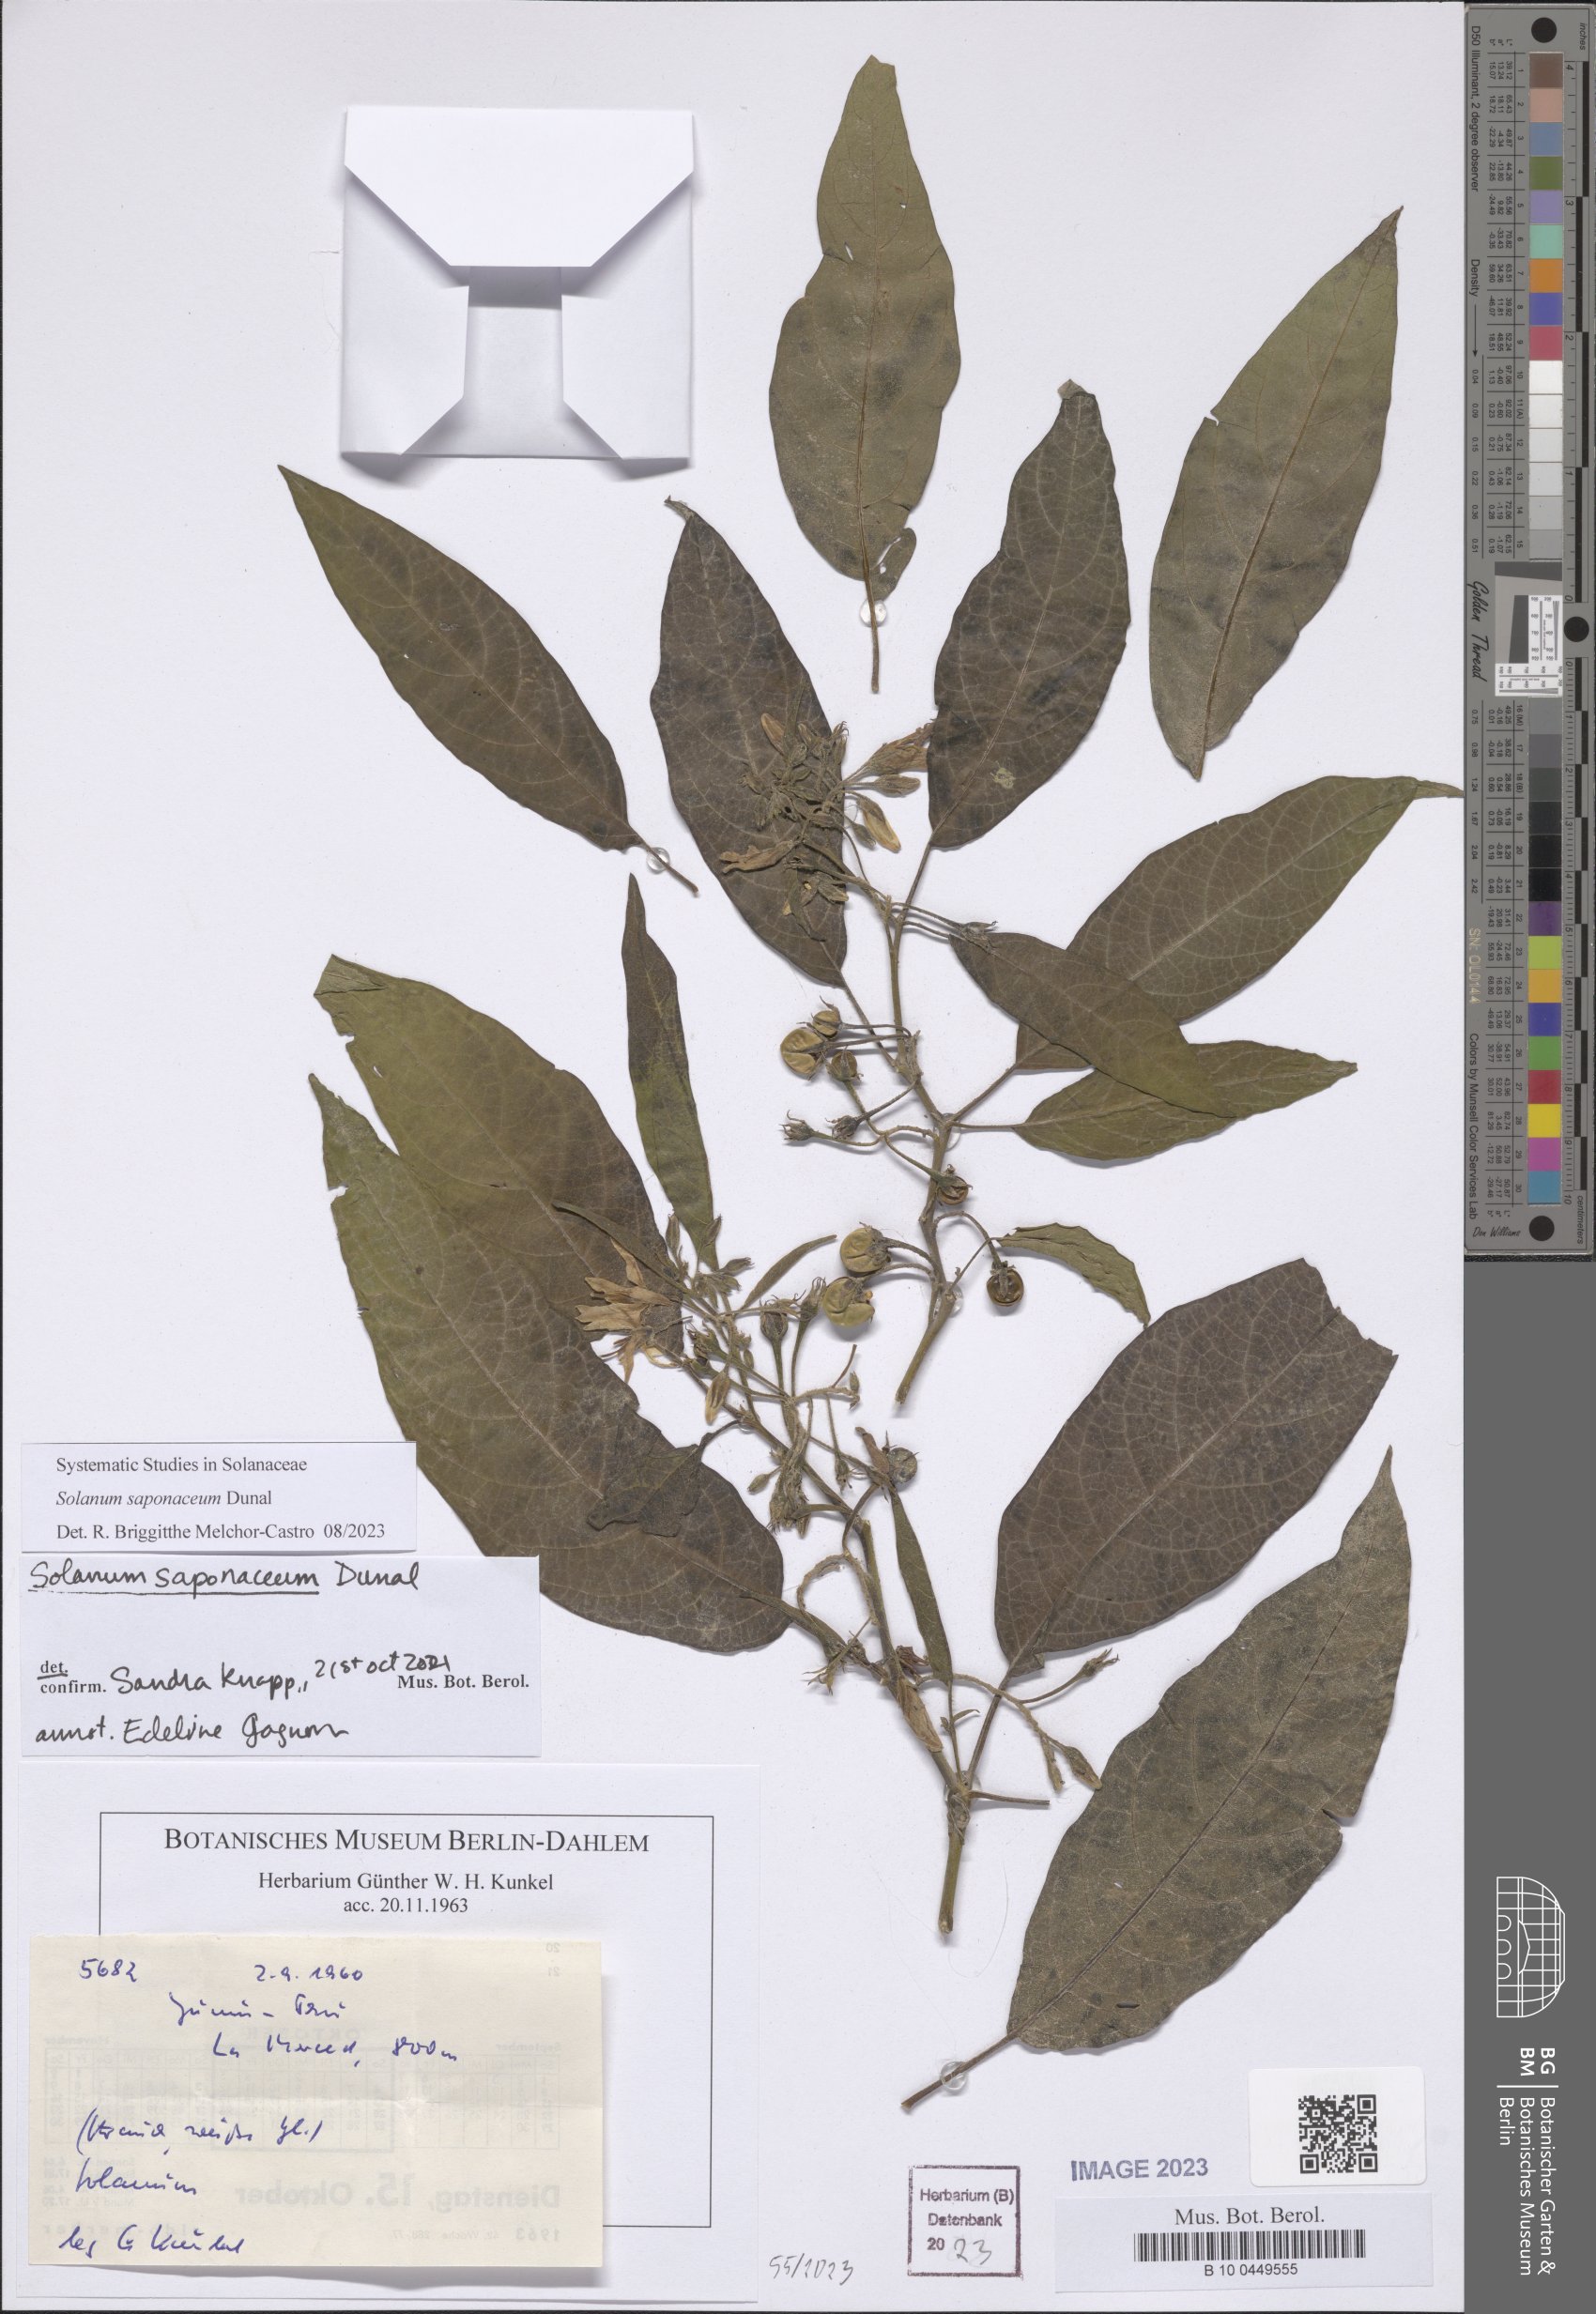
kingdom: Plantae
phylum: Tracheophyta
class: Magnoliopsida
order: Solanales
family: Solanaceae
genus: Solanum
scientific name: Solanum saponaceum
